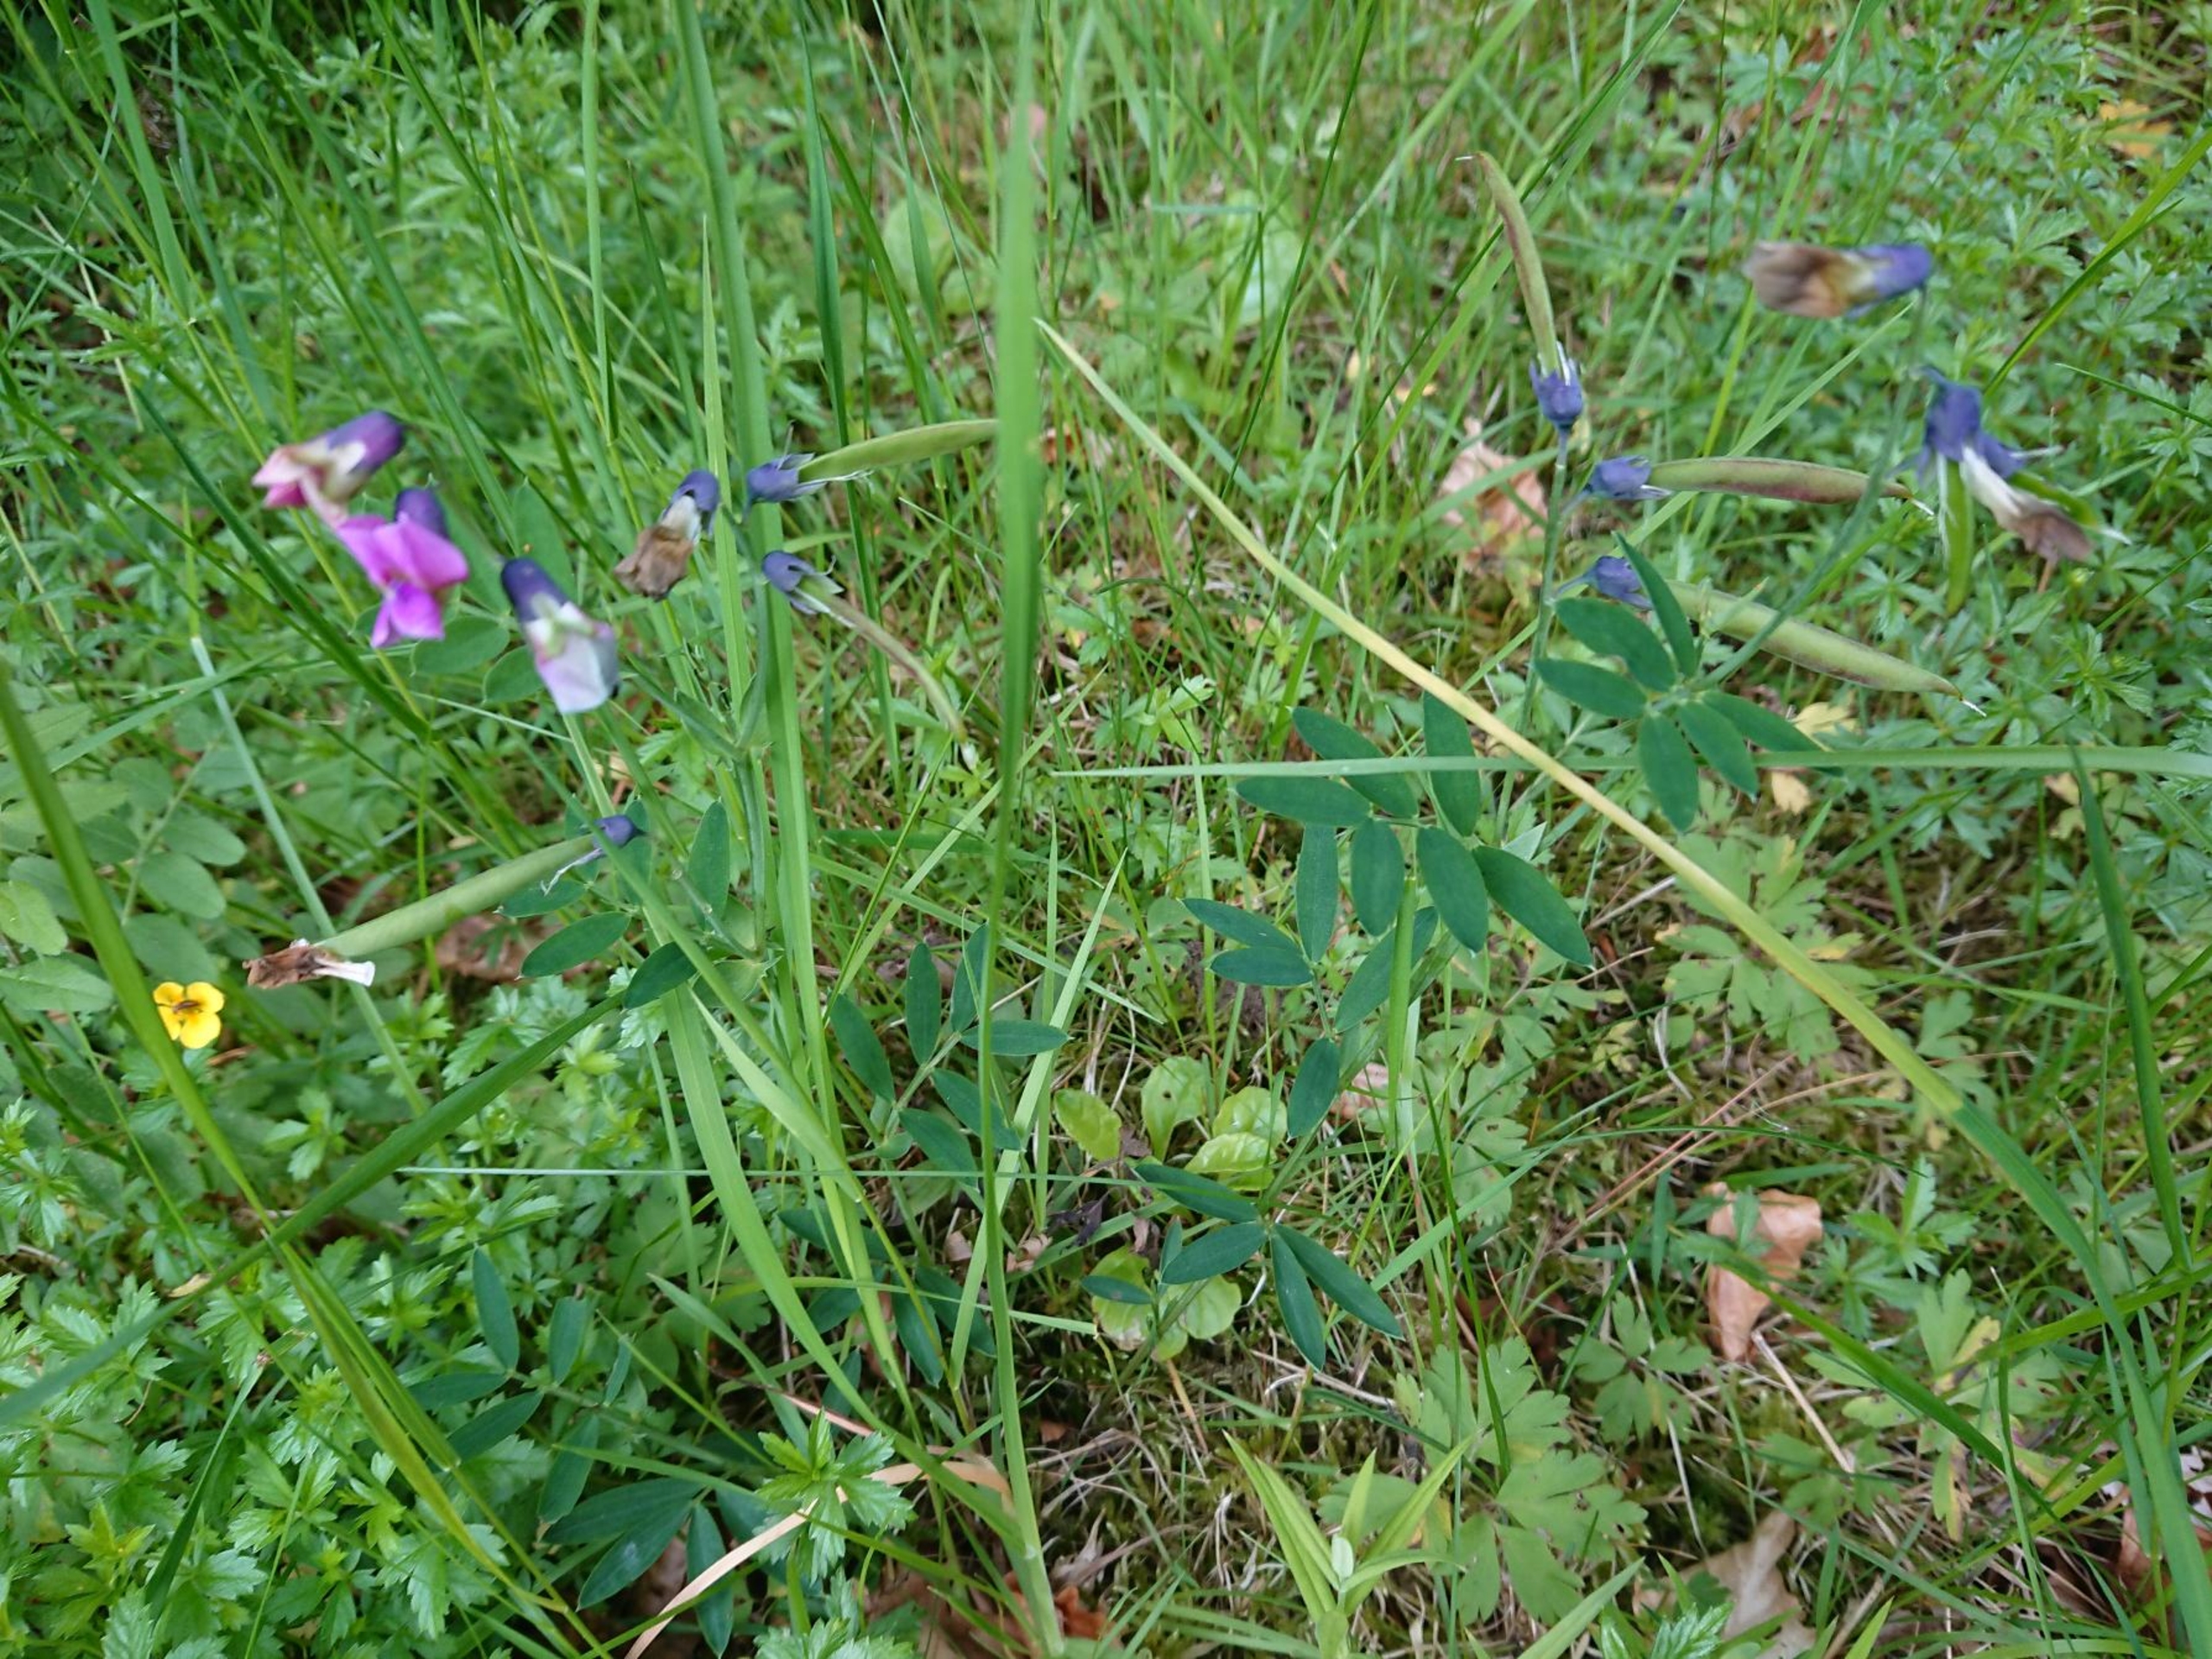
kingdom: Plantae
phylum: Tracheophyta
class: Magnoliopsida
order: Fabales
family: Fabaceae
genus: Lathyrus
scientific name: Lathyrus linifolius
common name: Krat-fladbælg
